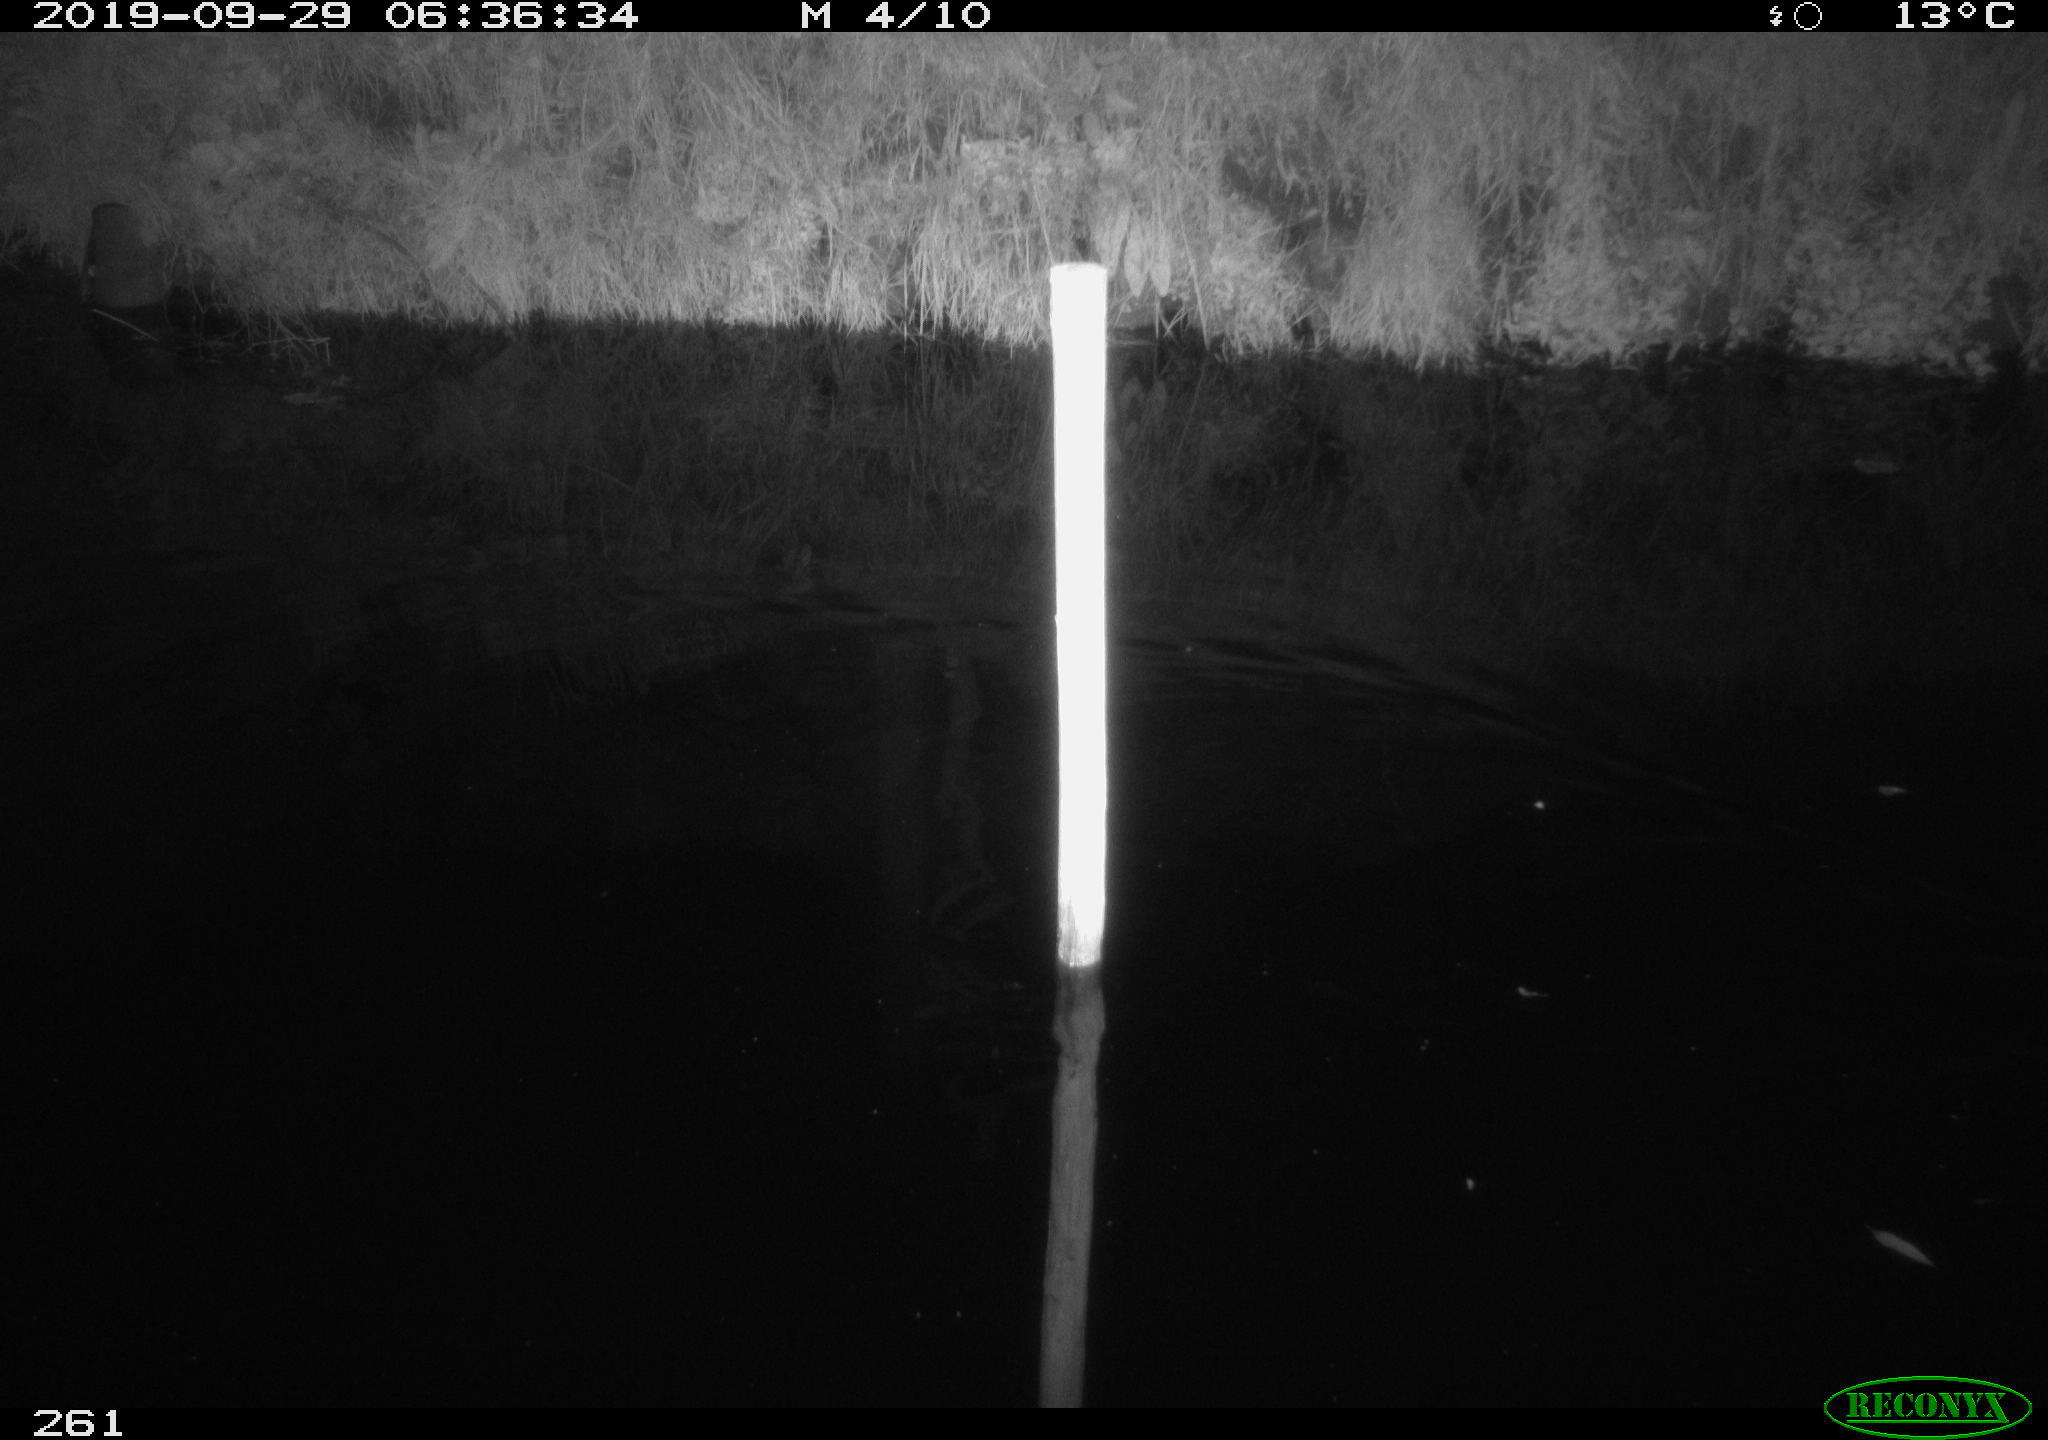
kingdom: Animalia
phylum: Chordata
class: Mammalia
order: Rodentia
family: Cricetidae
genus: Ondatra
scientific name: Ondatra zibethicus
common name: Muskrat
